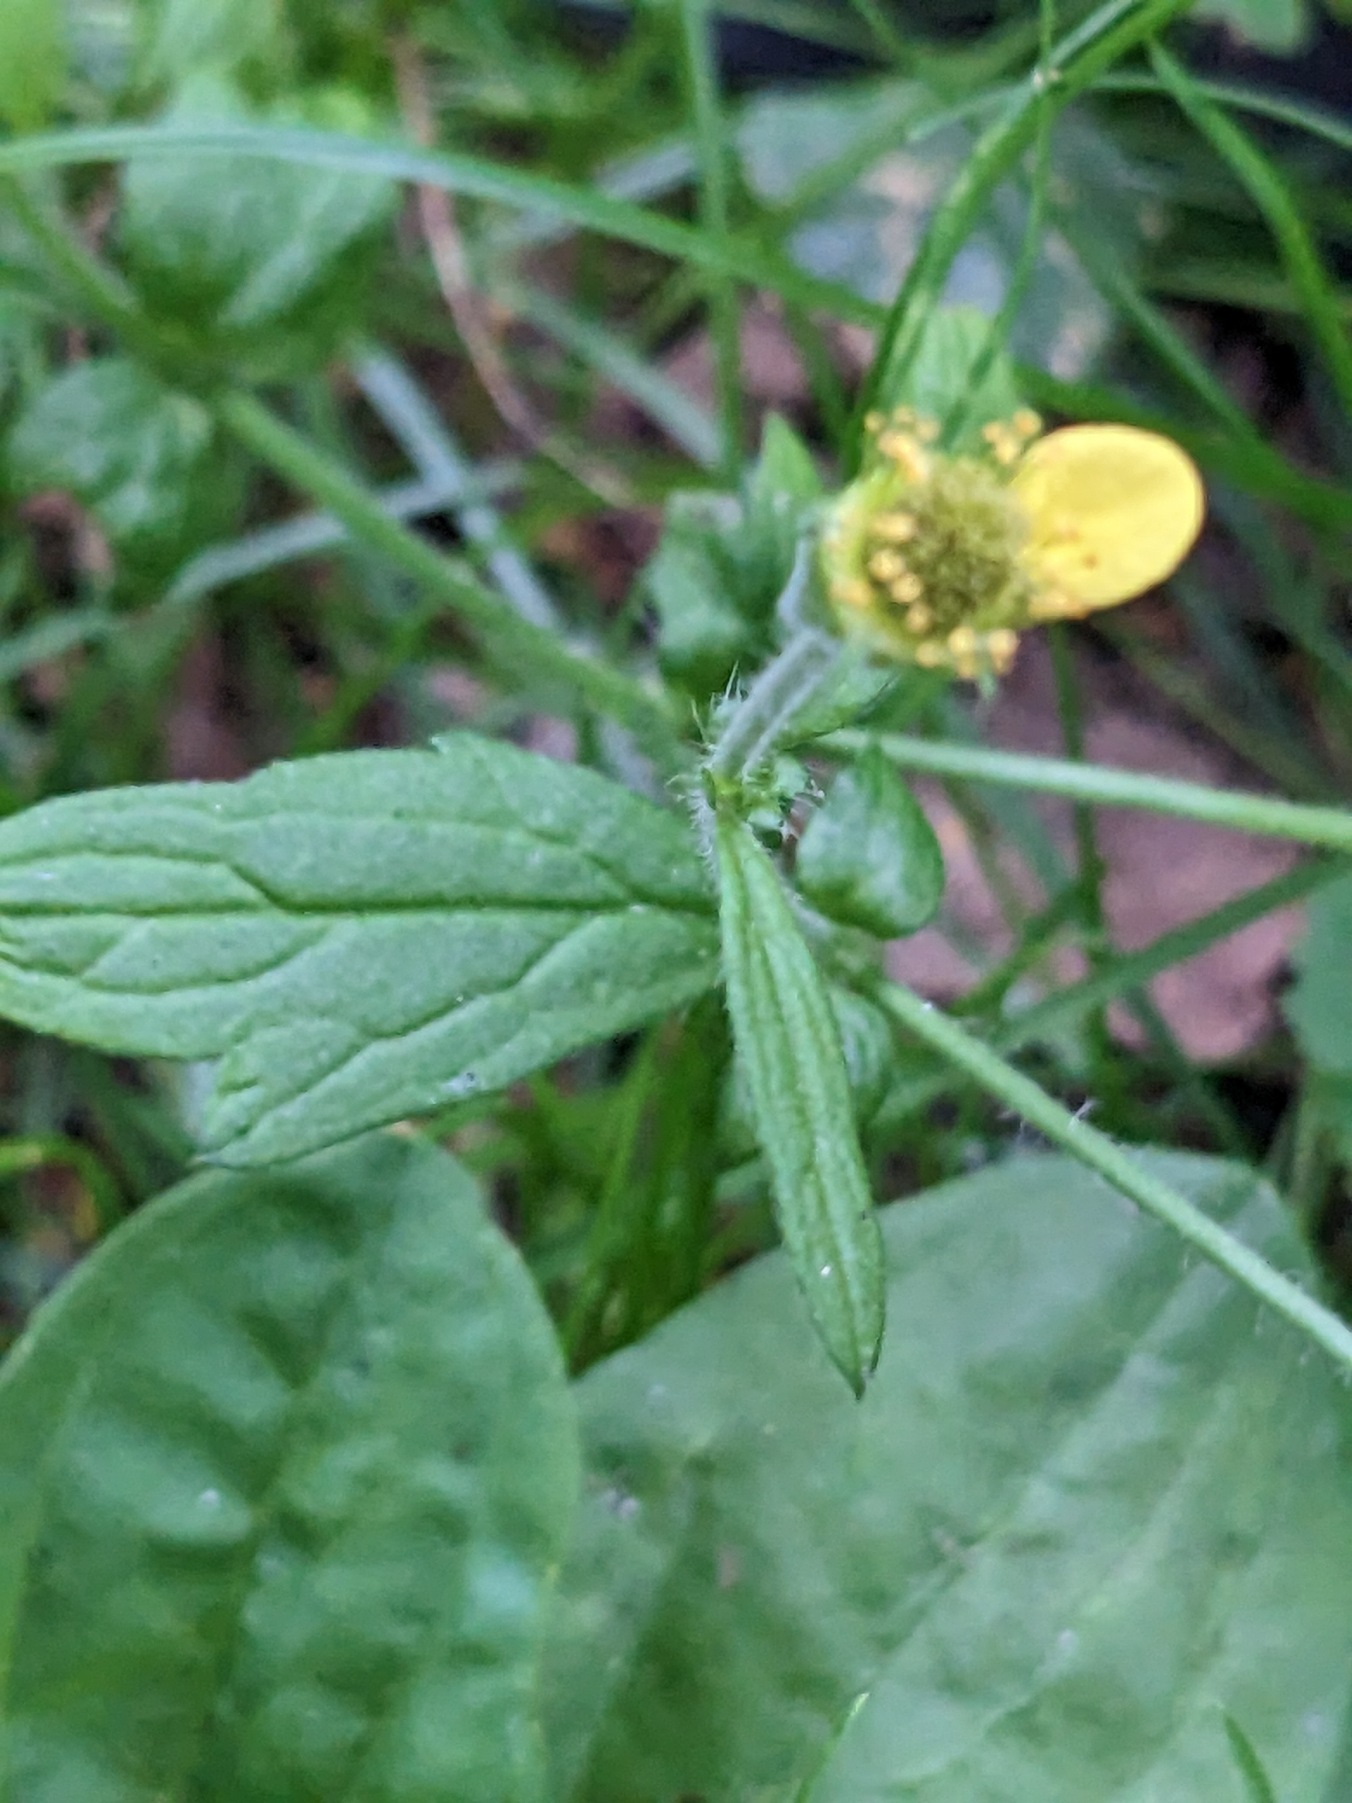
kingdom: Plantae
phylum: Tracheophyta
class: Magnoliopsida
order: Rosales
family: Rosaceae
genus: Geum
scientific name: Geum urbanum
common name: Feber-nellikerod
